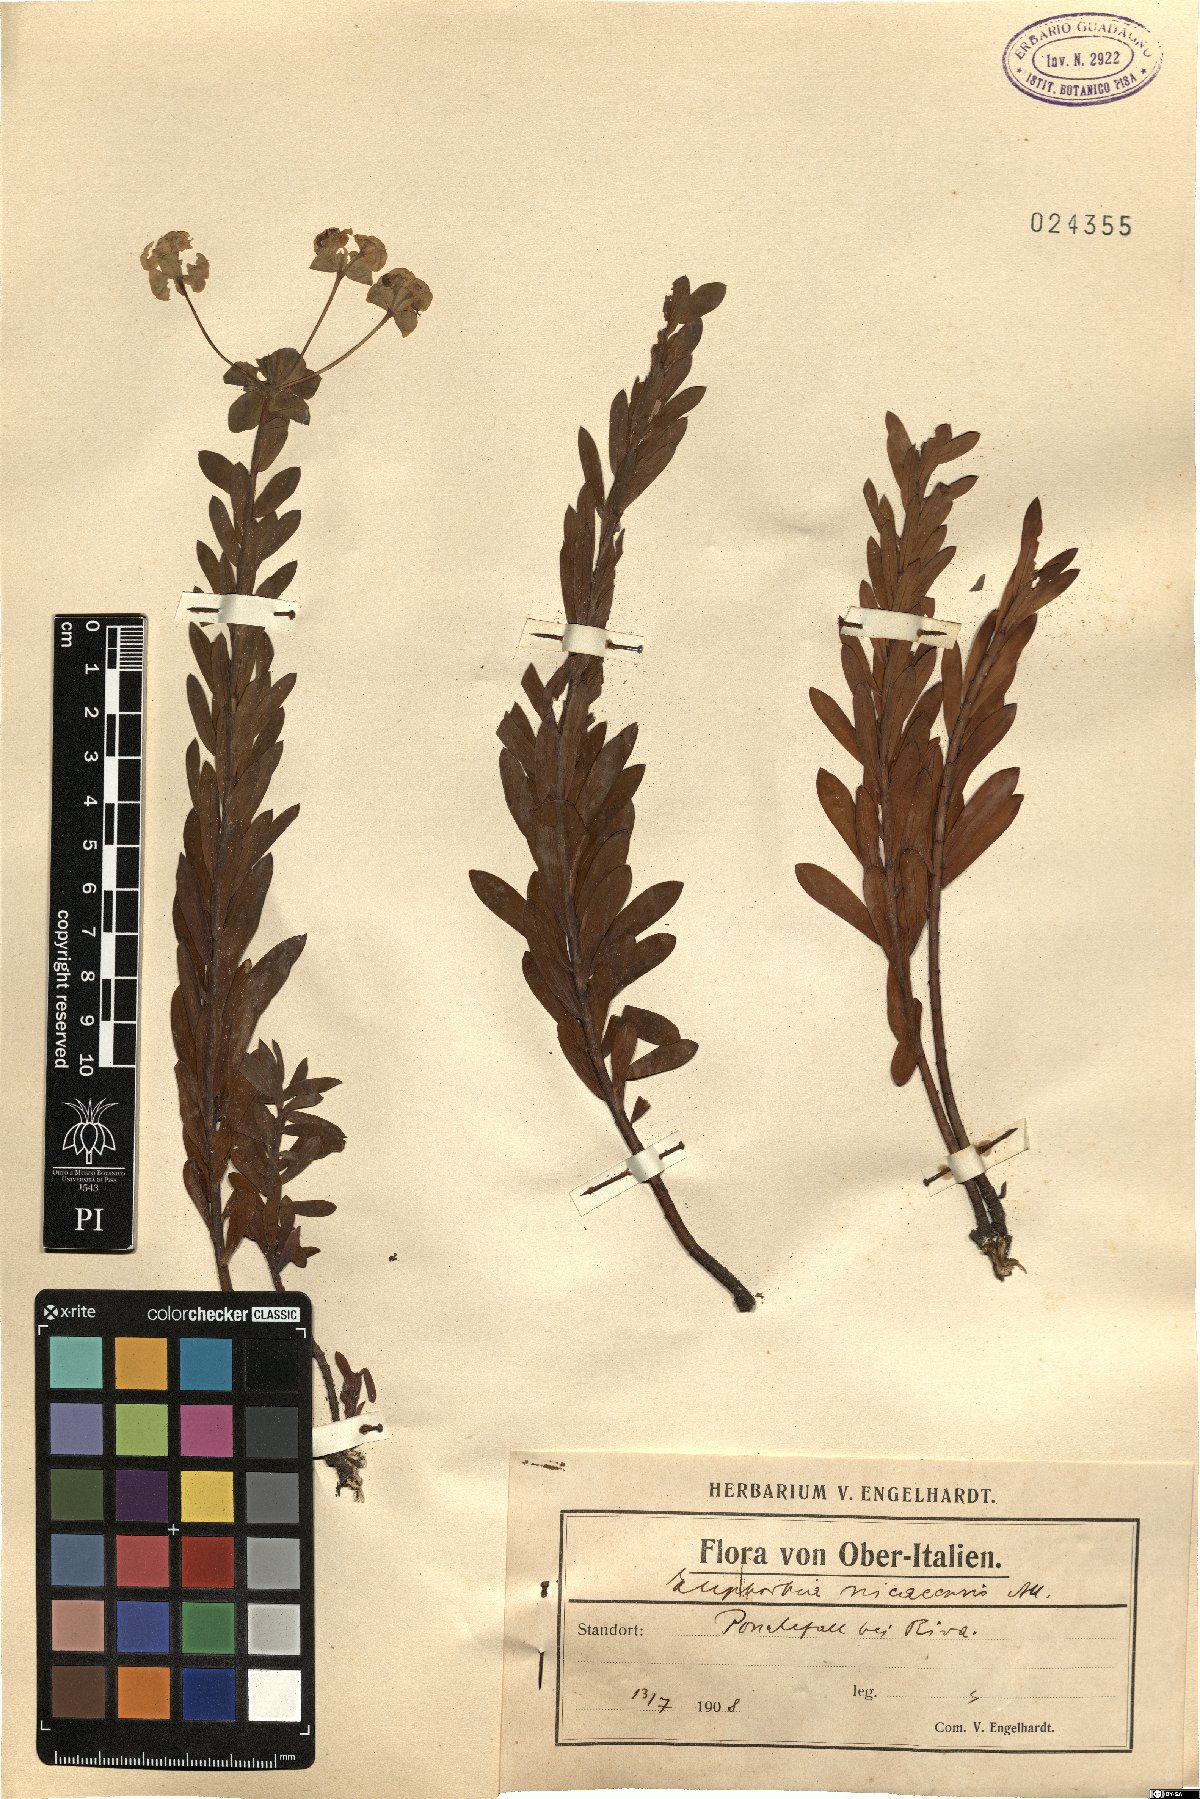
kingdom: Plantae
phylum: Tracheophyta
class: Magnoliopsida
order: Malpighiales
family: Euphorbiaceae
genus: Euphorbia
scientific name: Euphorbia nicaeensis
